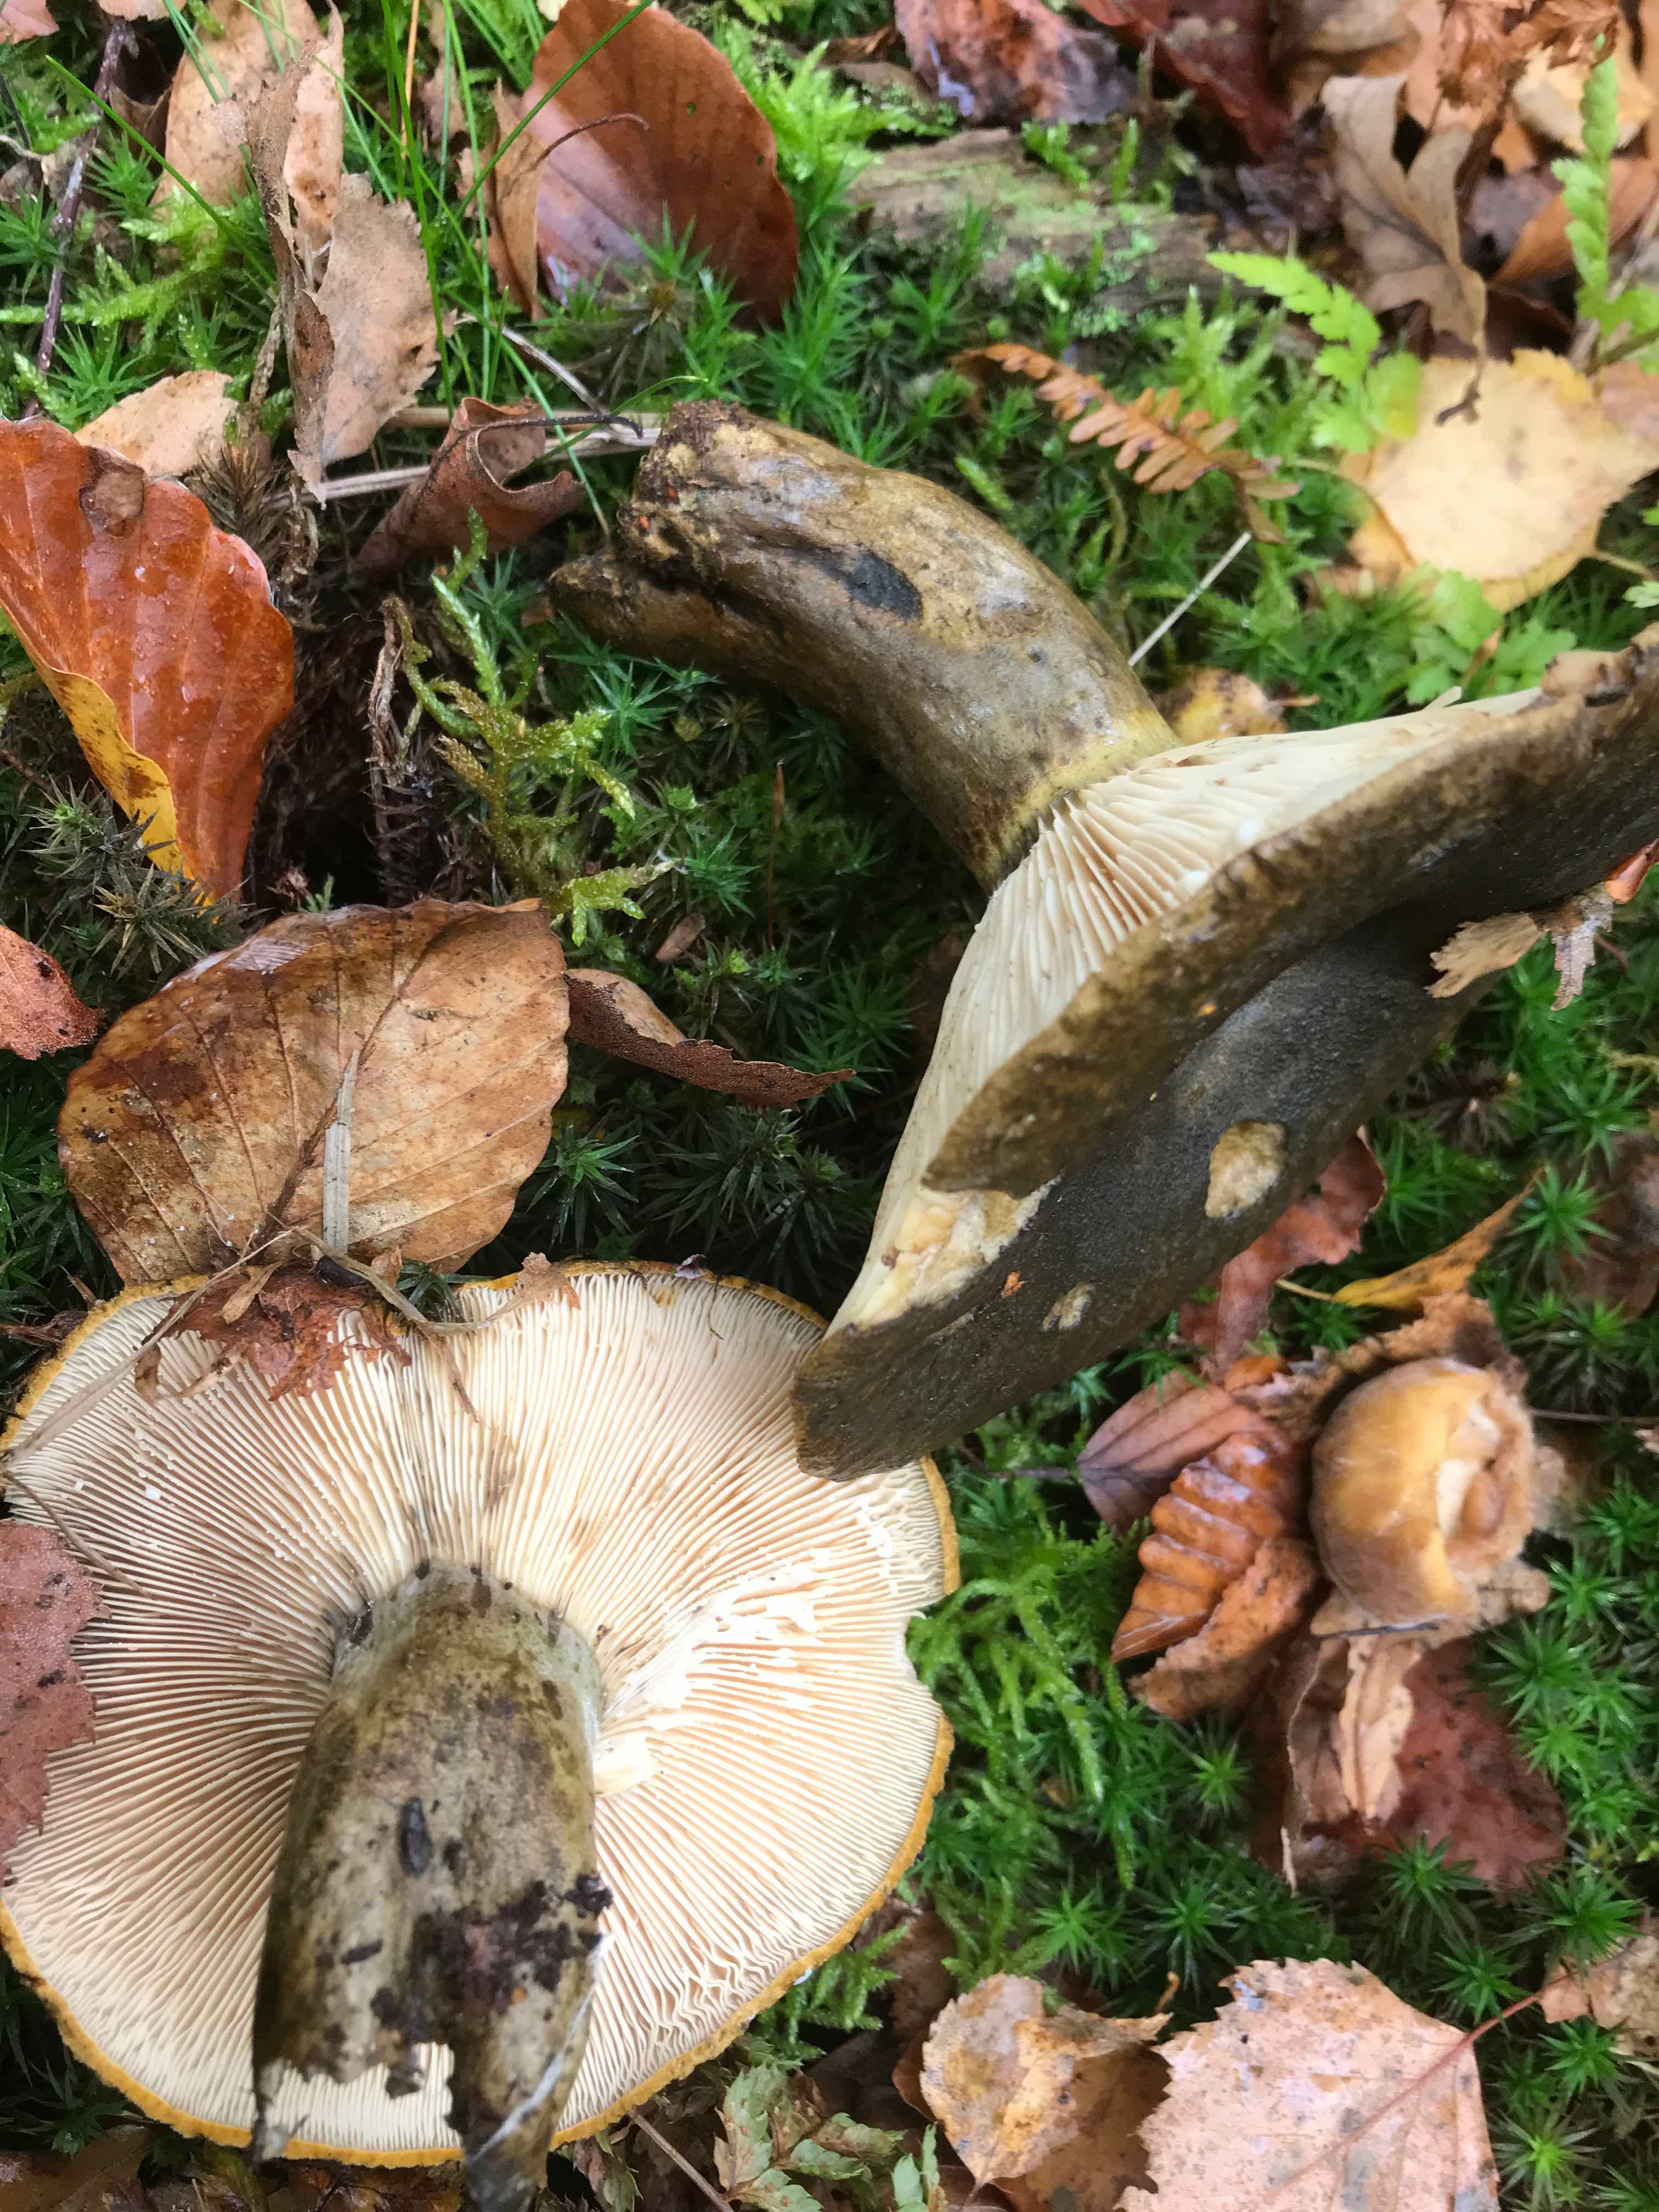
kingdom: Fungi
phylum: Basidiomycota
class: Agaricomycetes
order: Russulales
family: Russulaceae
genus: Lactarius
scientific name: Lactarius necator
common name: manddraber-mælkehat
